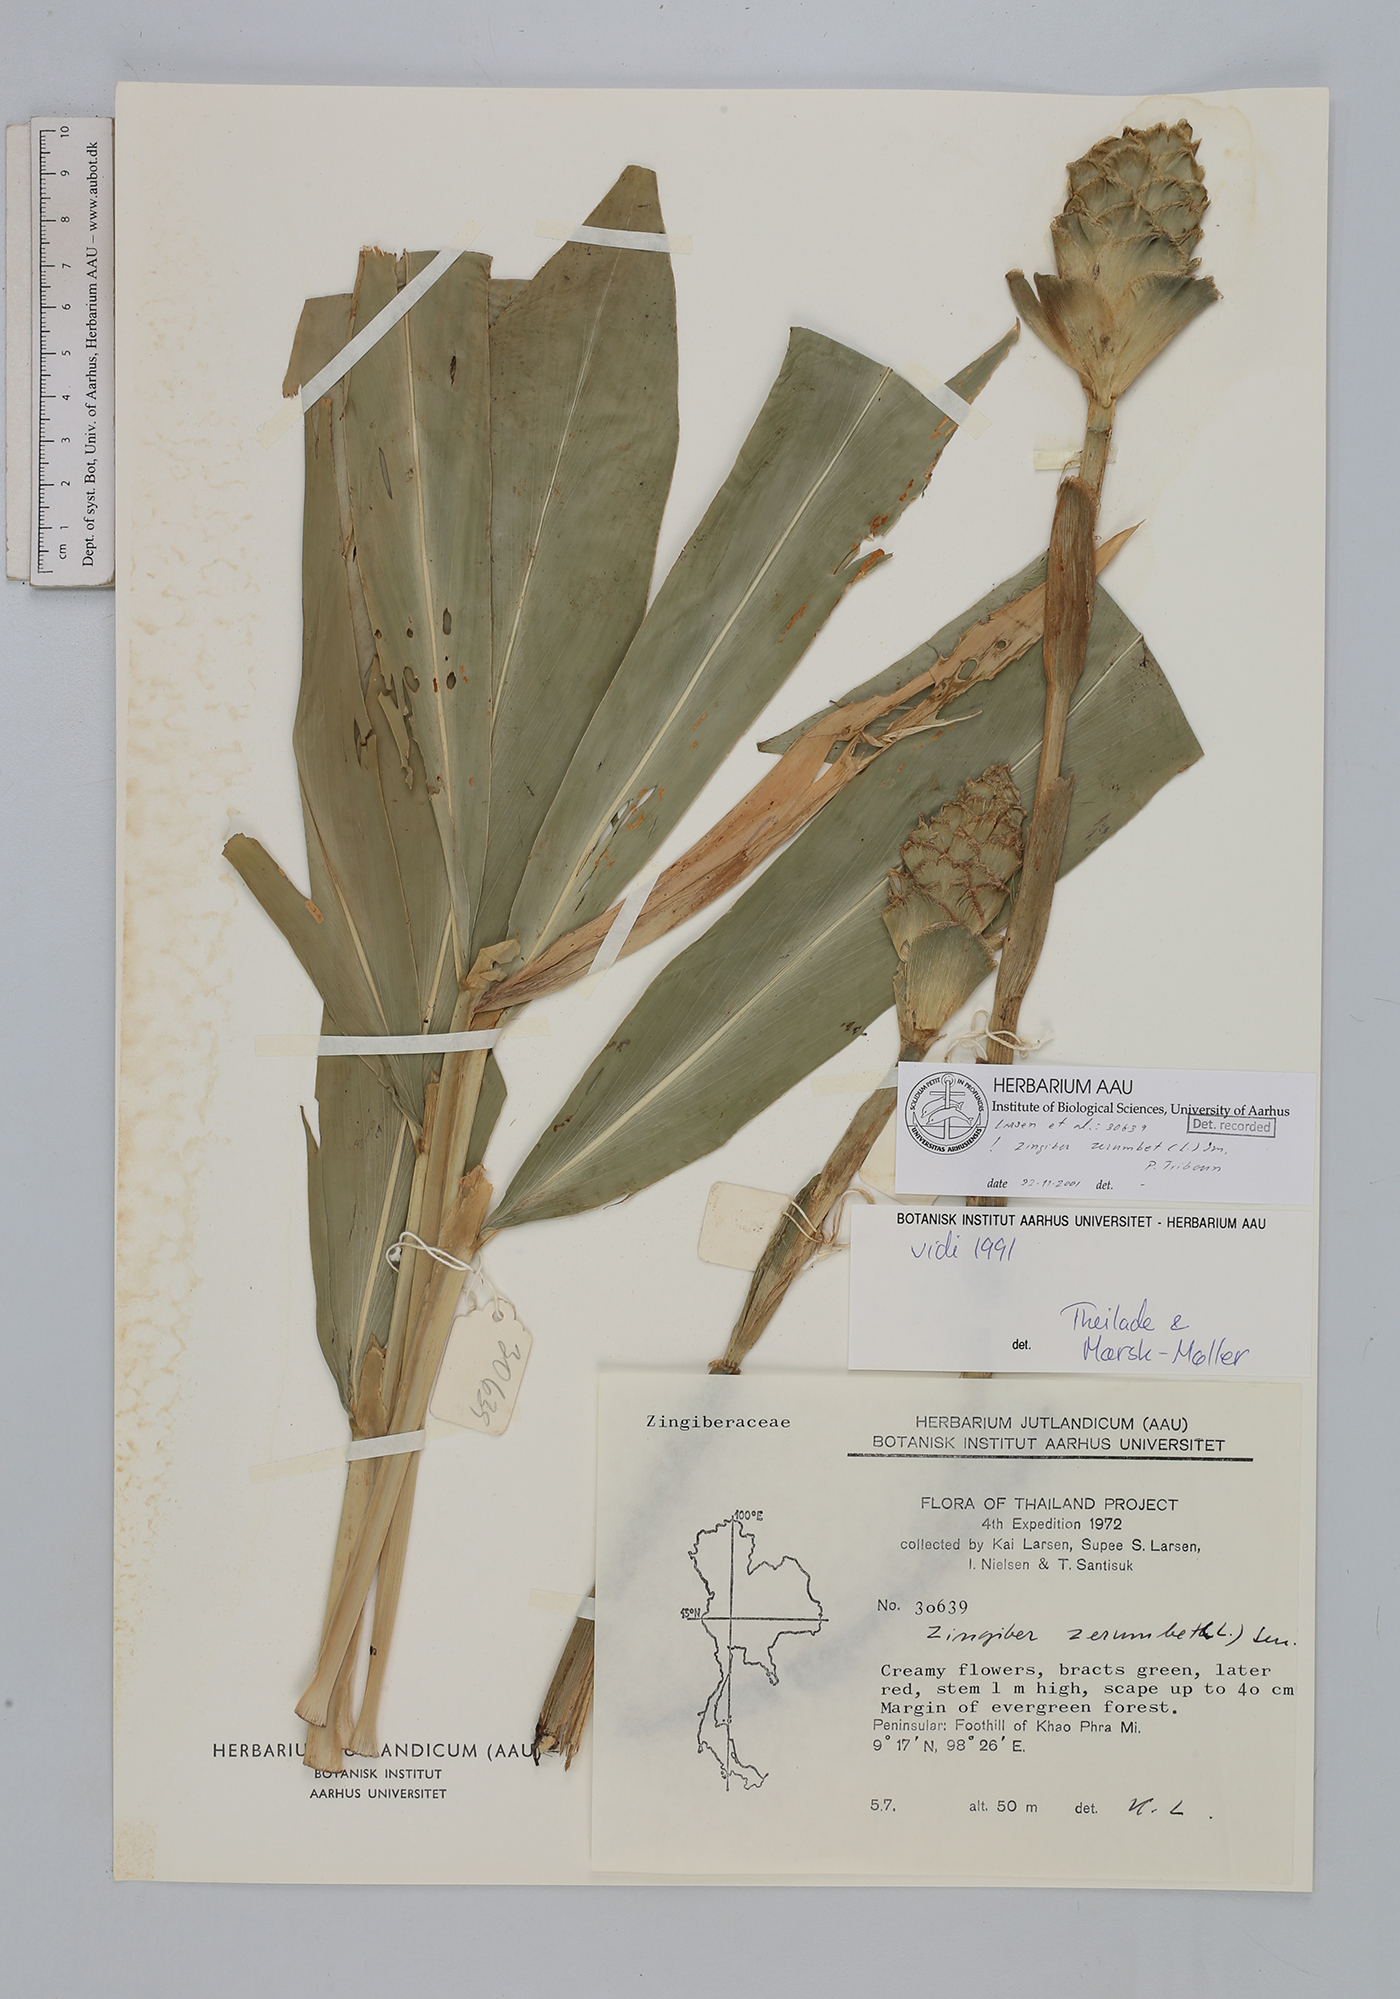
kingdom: Plantae
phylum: Tracheophyta
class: Liliopsida
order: Zingiberales
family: Zingiberaceae
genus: Zingiber
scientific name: Zingiber zerumbet
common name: Bitter ginger
